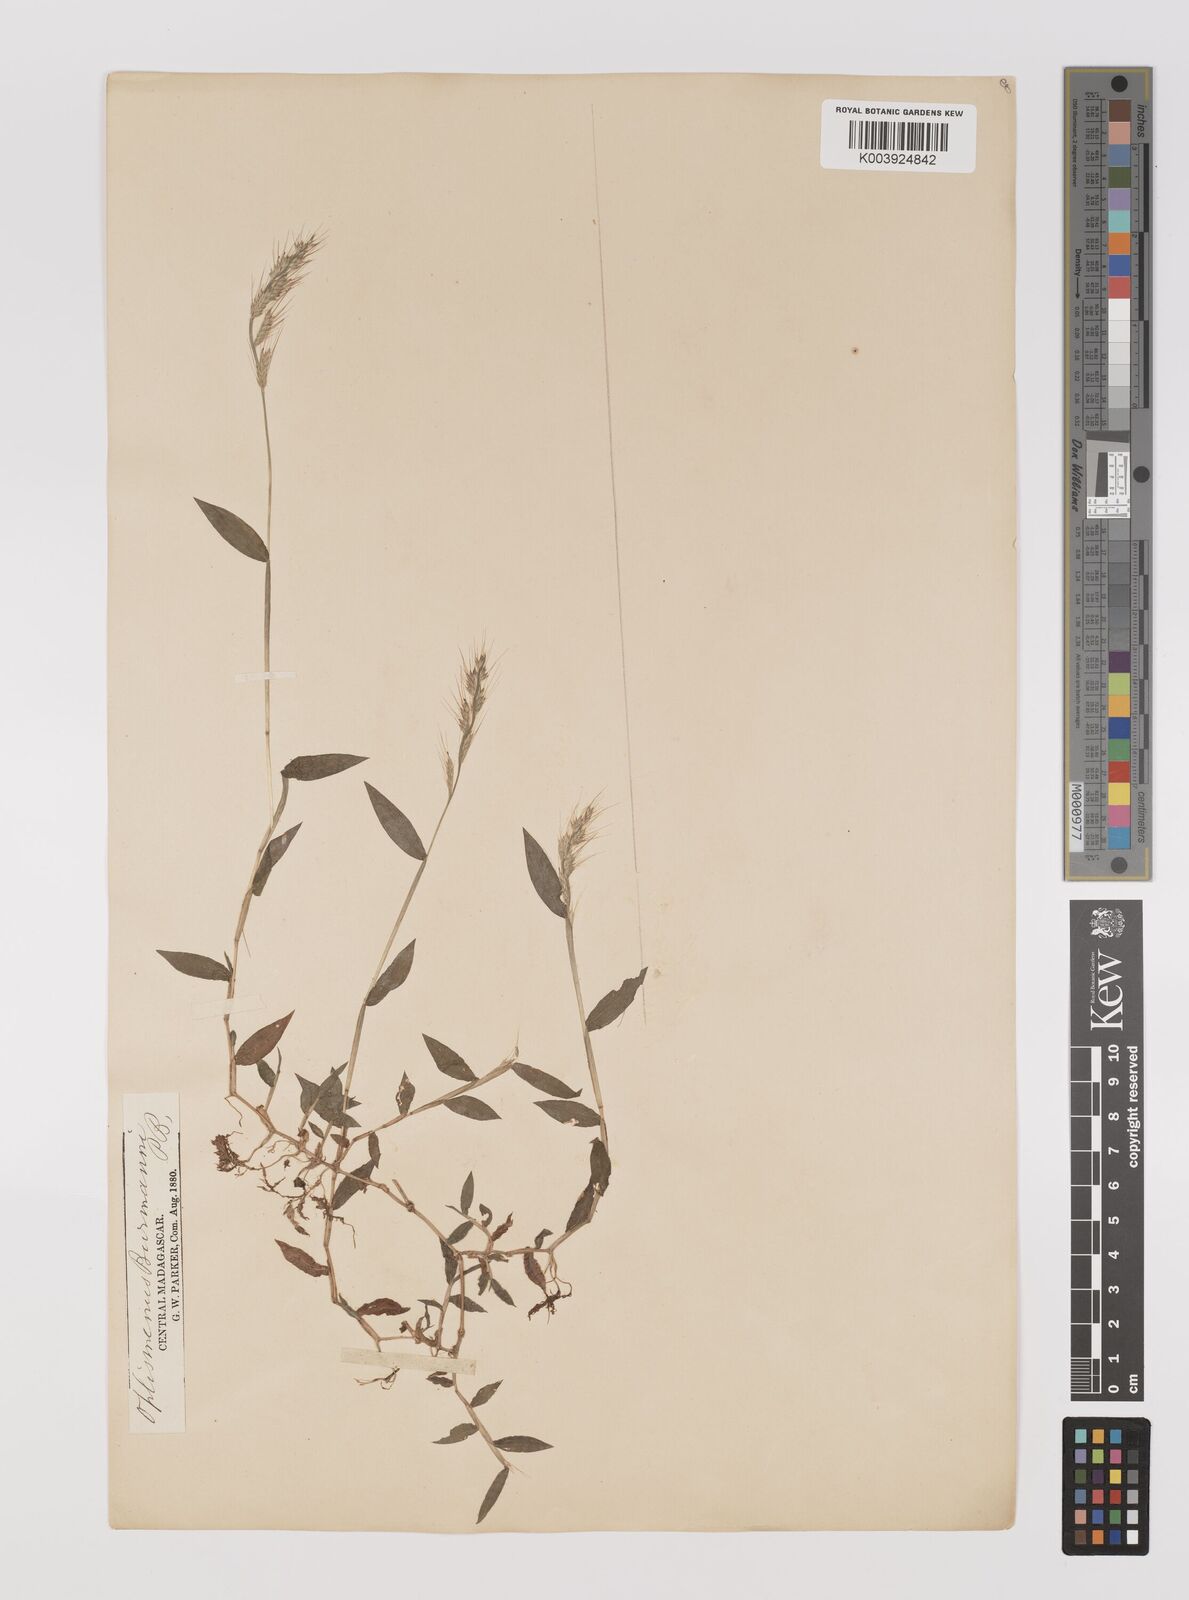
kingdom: Plantae
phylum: Tracheophyta
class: Liliopsida
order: Poales
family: Poaceae
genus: Oplismenus
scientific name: Oplismenus burmanni
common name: Burmann's basketgrass
